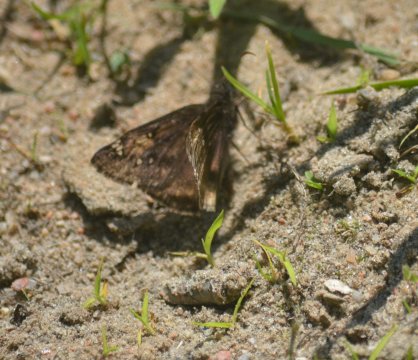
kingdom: Animalia
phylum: Arthropoda
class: Insecta
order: Lepidoptera
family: Hesperiidae
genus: Gesta
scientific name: Gesta
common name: Juvenal's Duskywing
